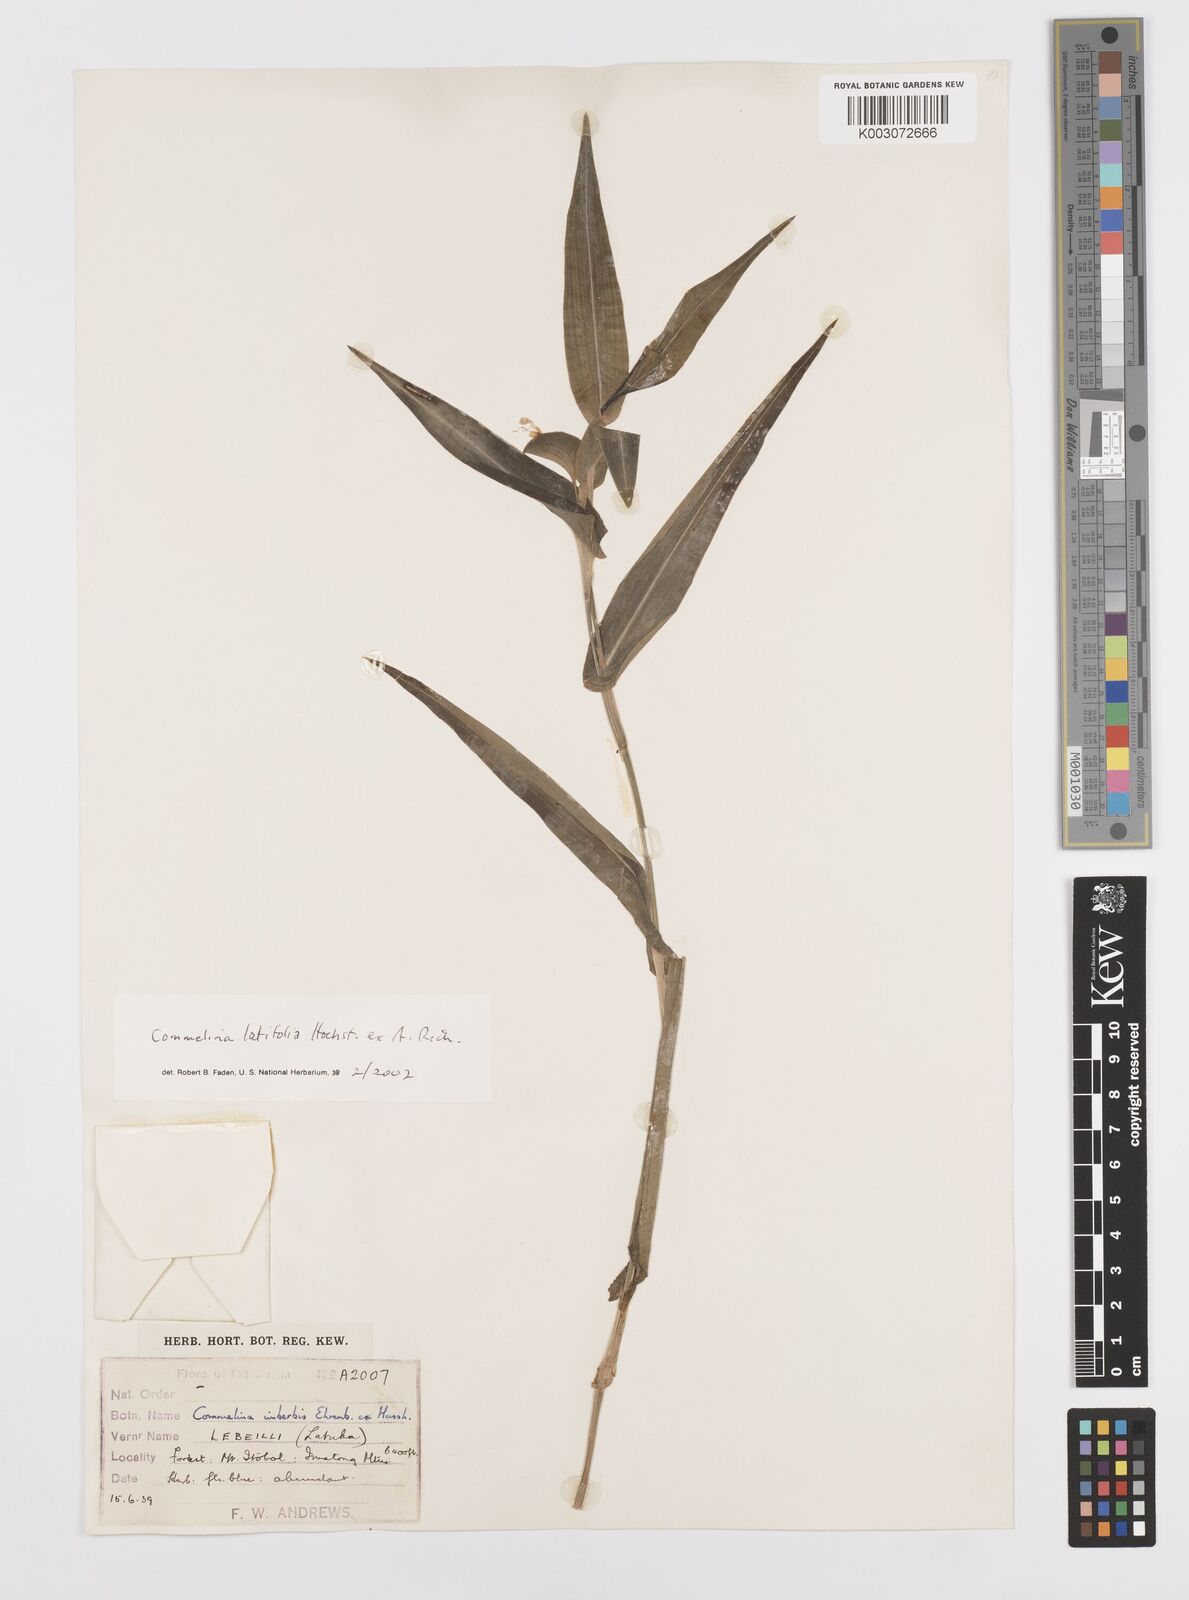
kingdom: Plantae
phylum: Tracheophyta
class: Liliopsida
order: Commelinales
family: Commelinaceae
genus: Commelina
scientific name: Commelina imberbis
